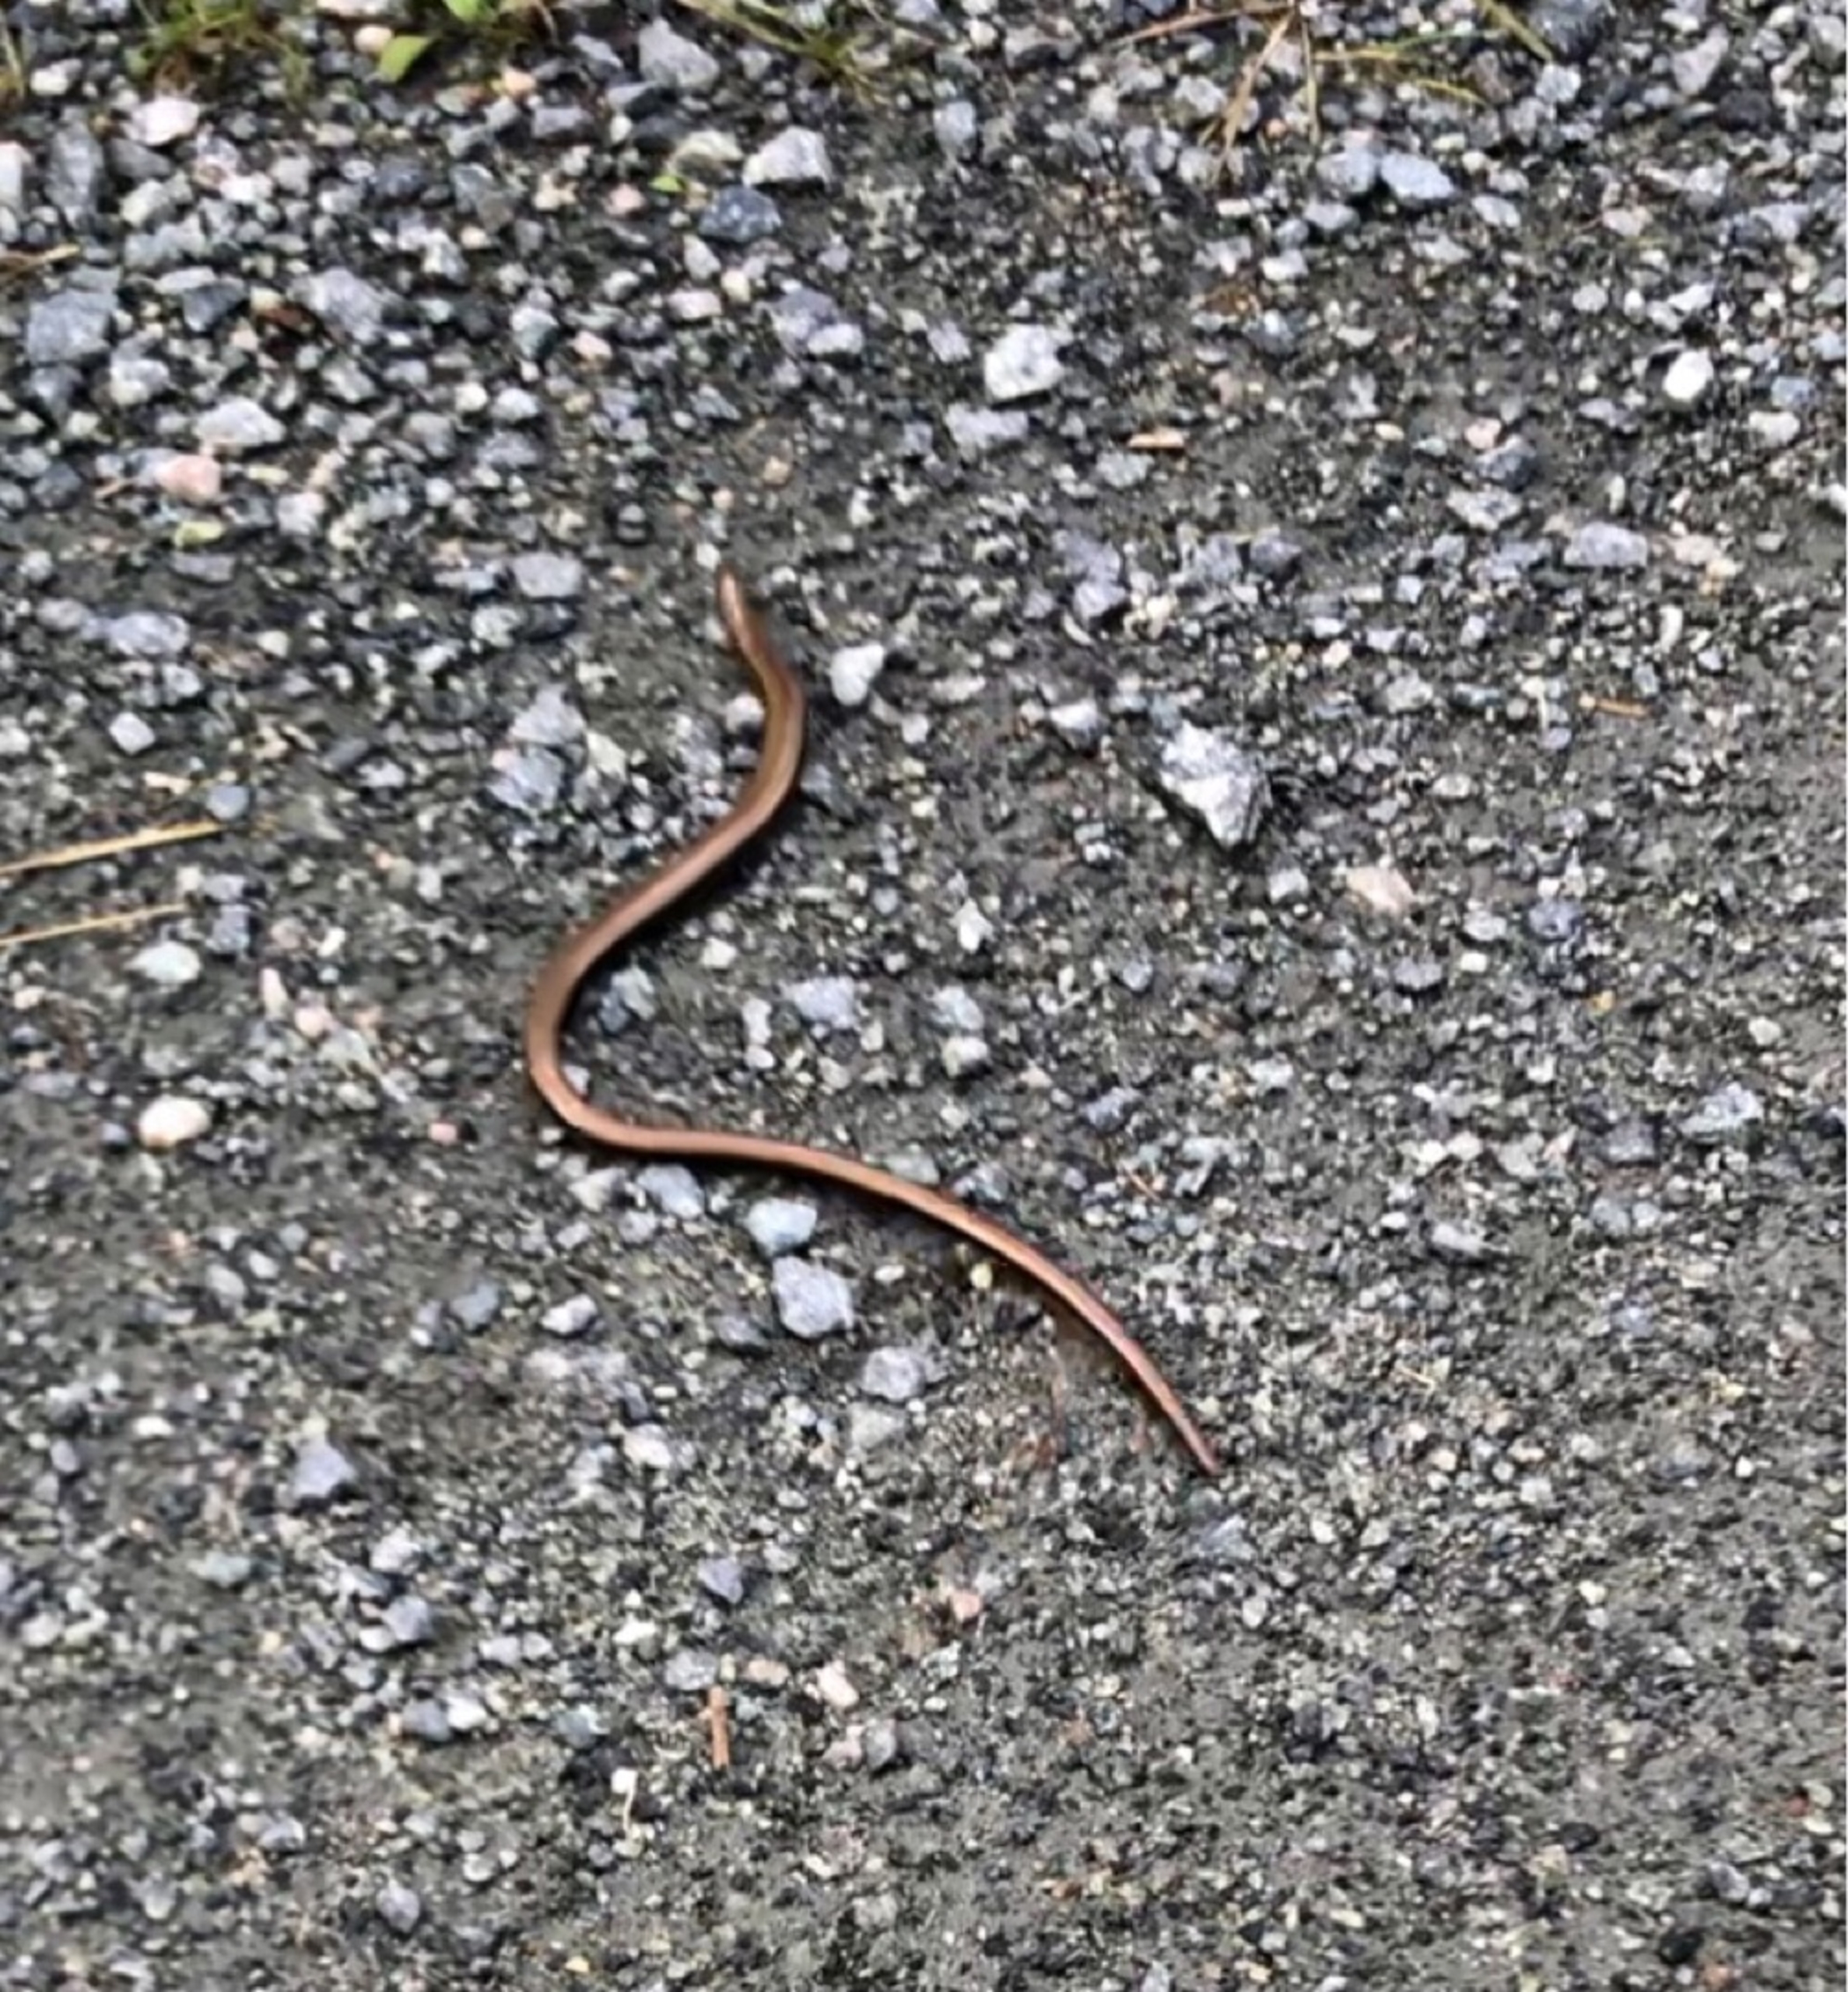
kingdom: Animalia
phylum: Chordata
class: Squamata
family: Anguidae
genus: Anguis
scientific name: Anguis fragilis
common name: Stålorm
